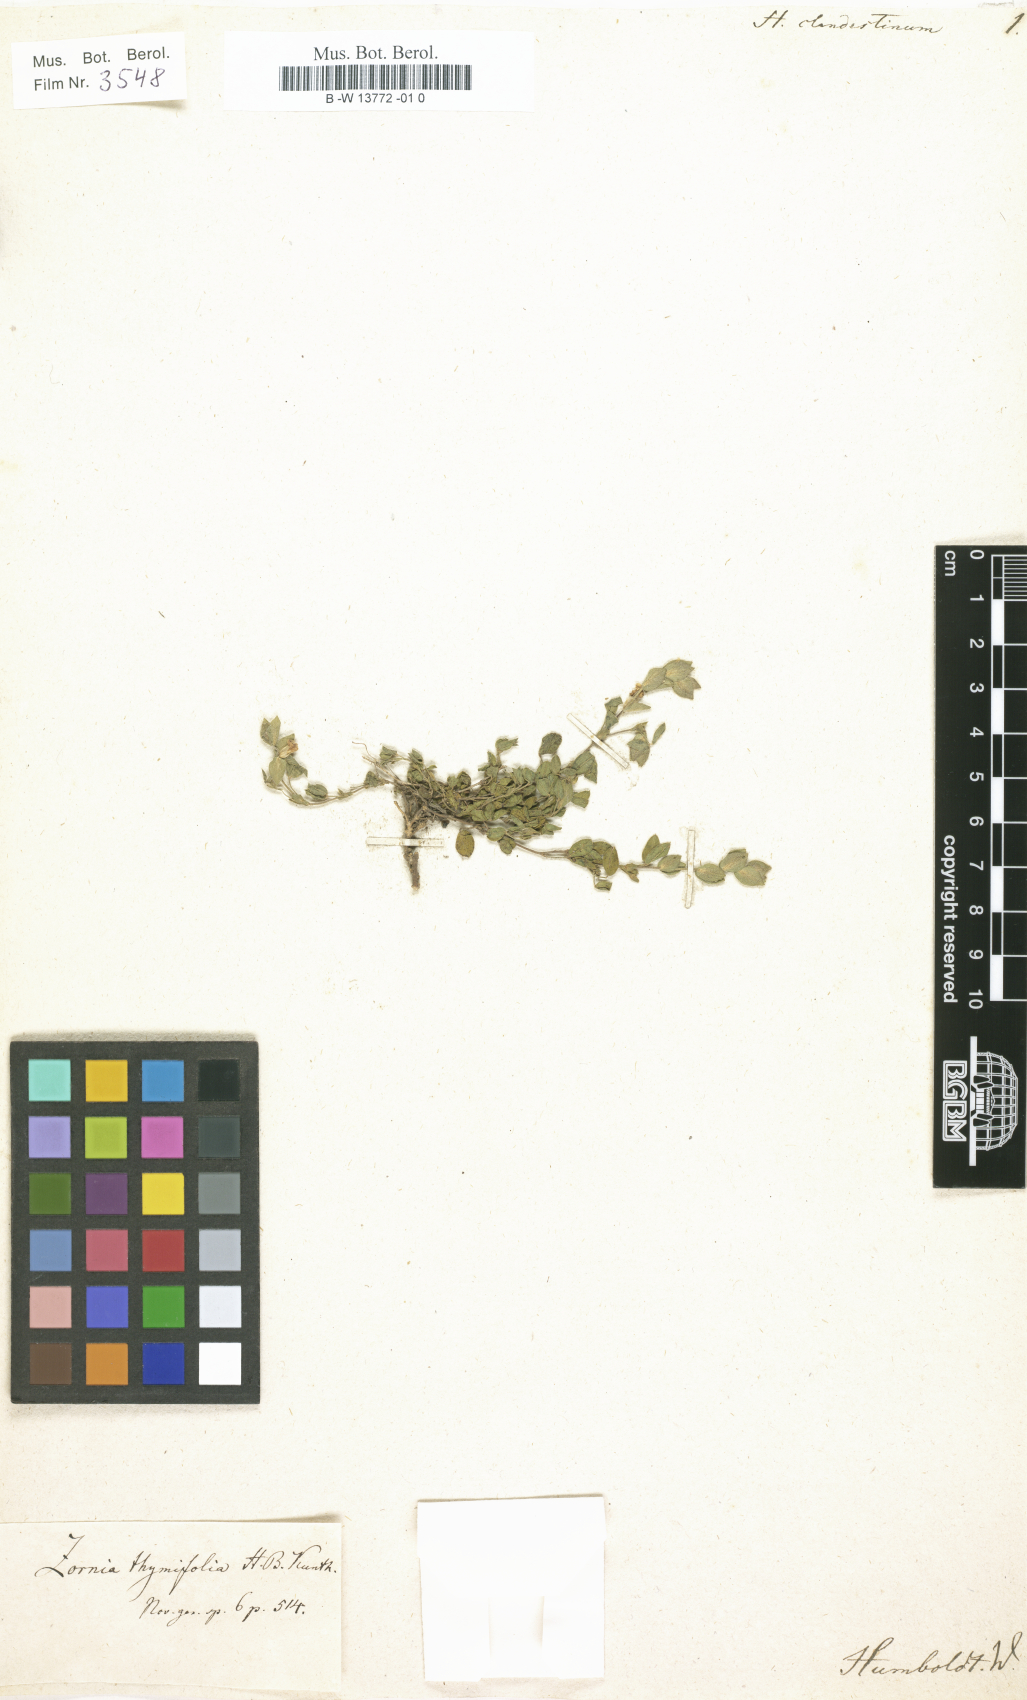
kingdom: Plantae
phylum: Tracheophyta
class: Magnoliopsida
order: Fabales
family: Fabaceae
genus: Zornia
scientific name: Zornia thymifolia
